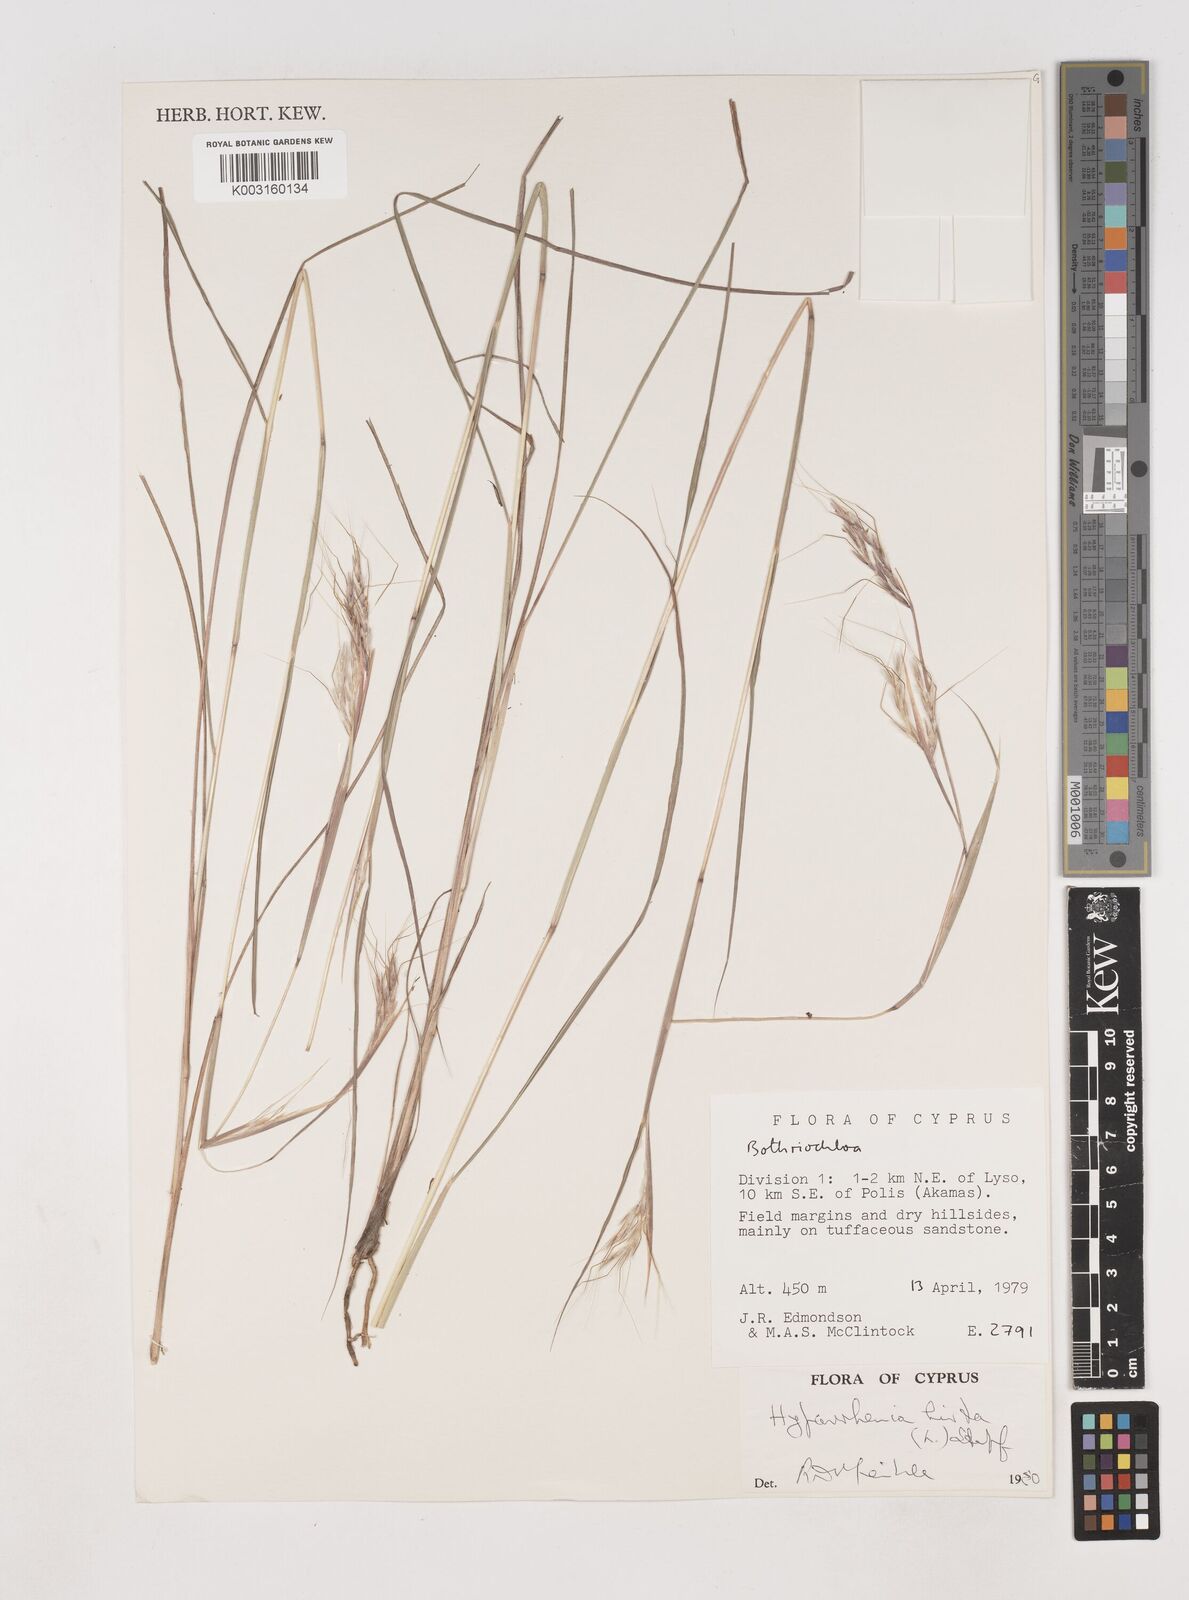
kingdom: Plantae
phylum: Tracheophyta
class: Liliopsida
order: Poales
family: Poaceae
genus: Hyparrhenia
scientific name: Hyparrhenia hirta
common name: Thatching grass
